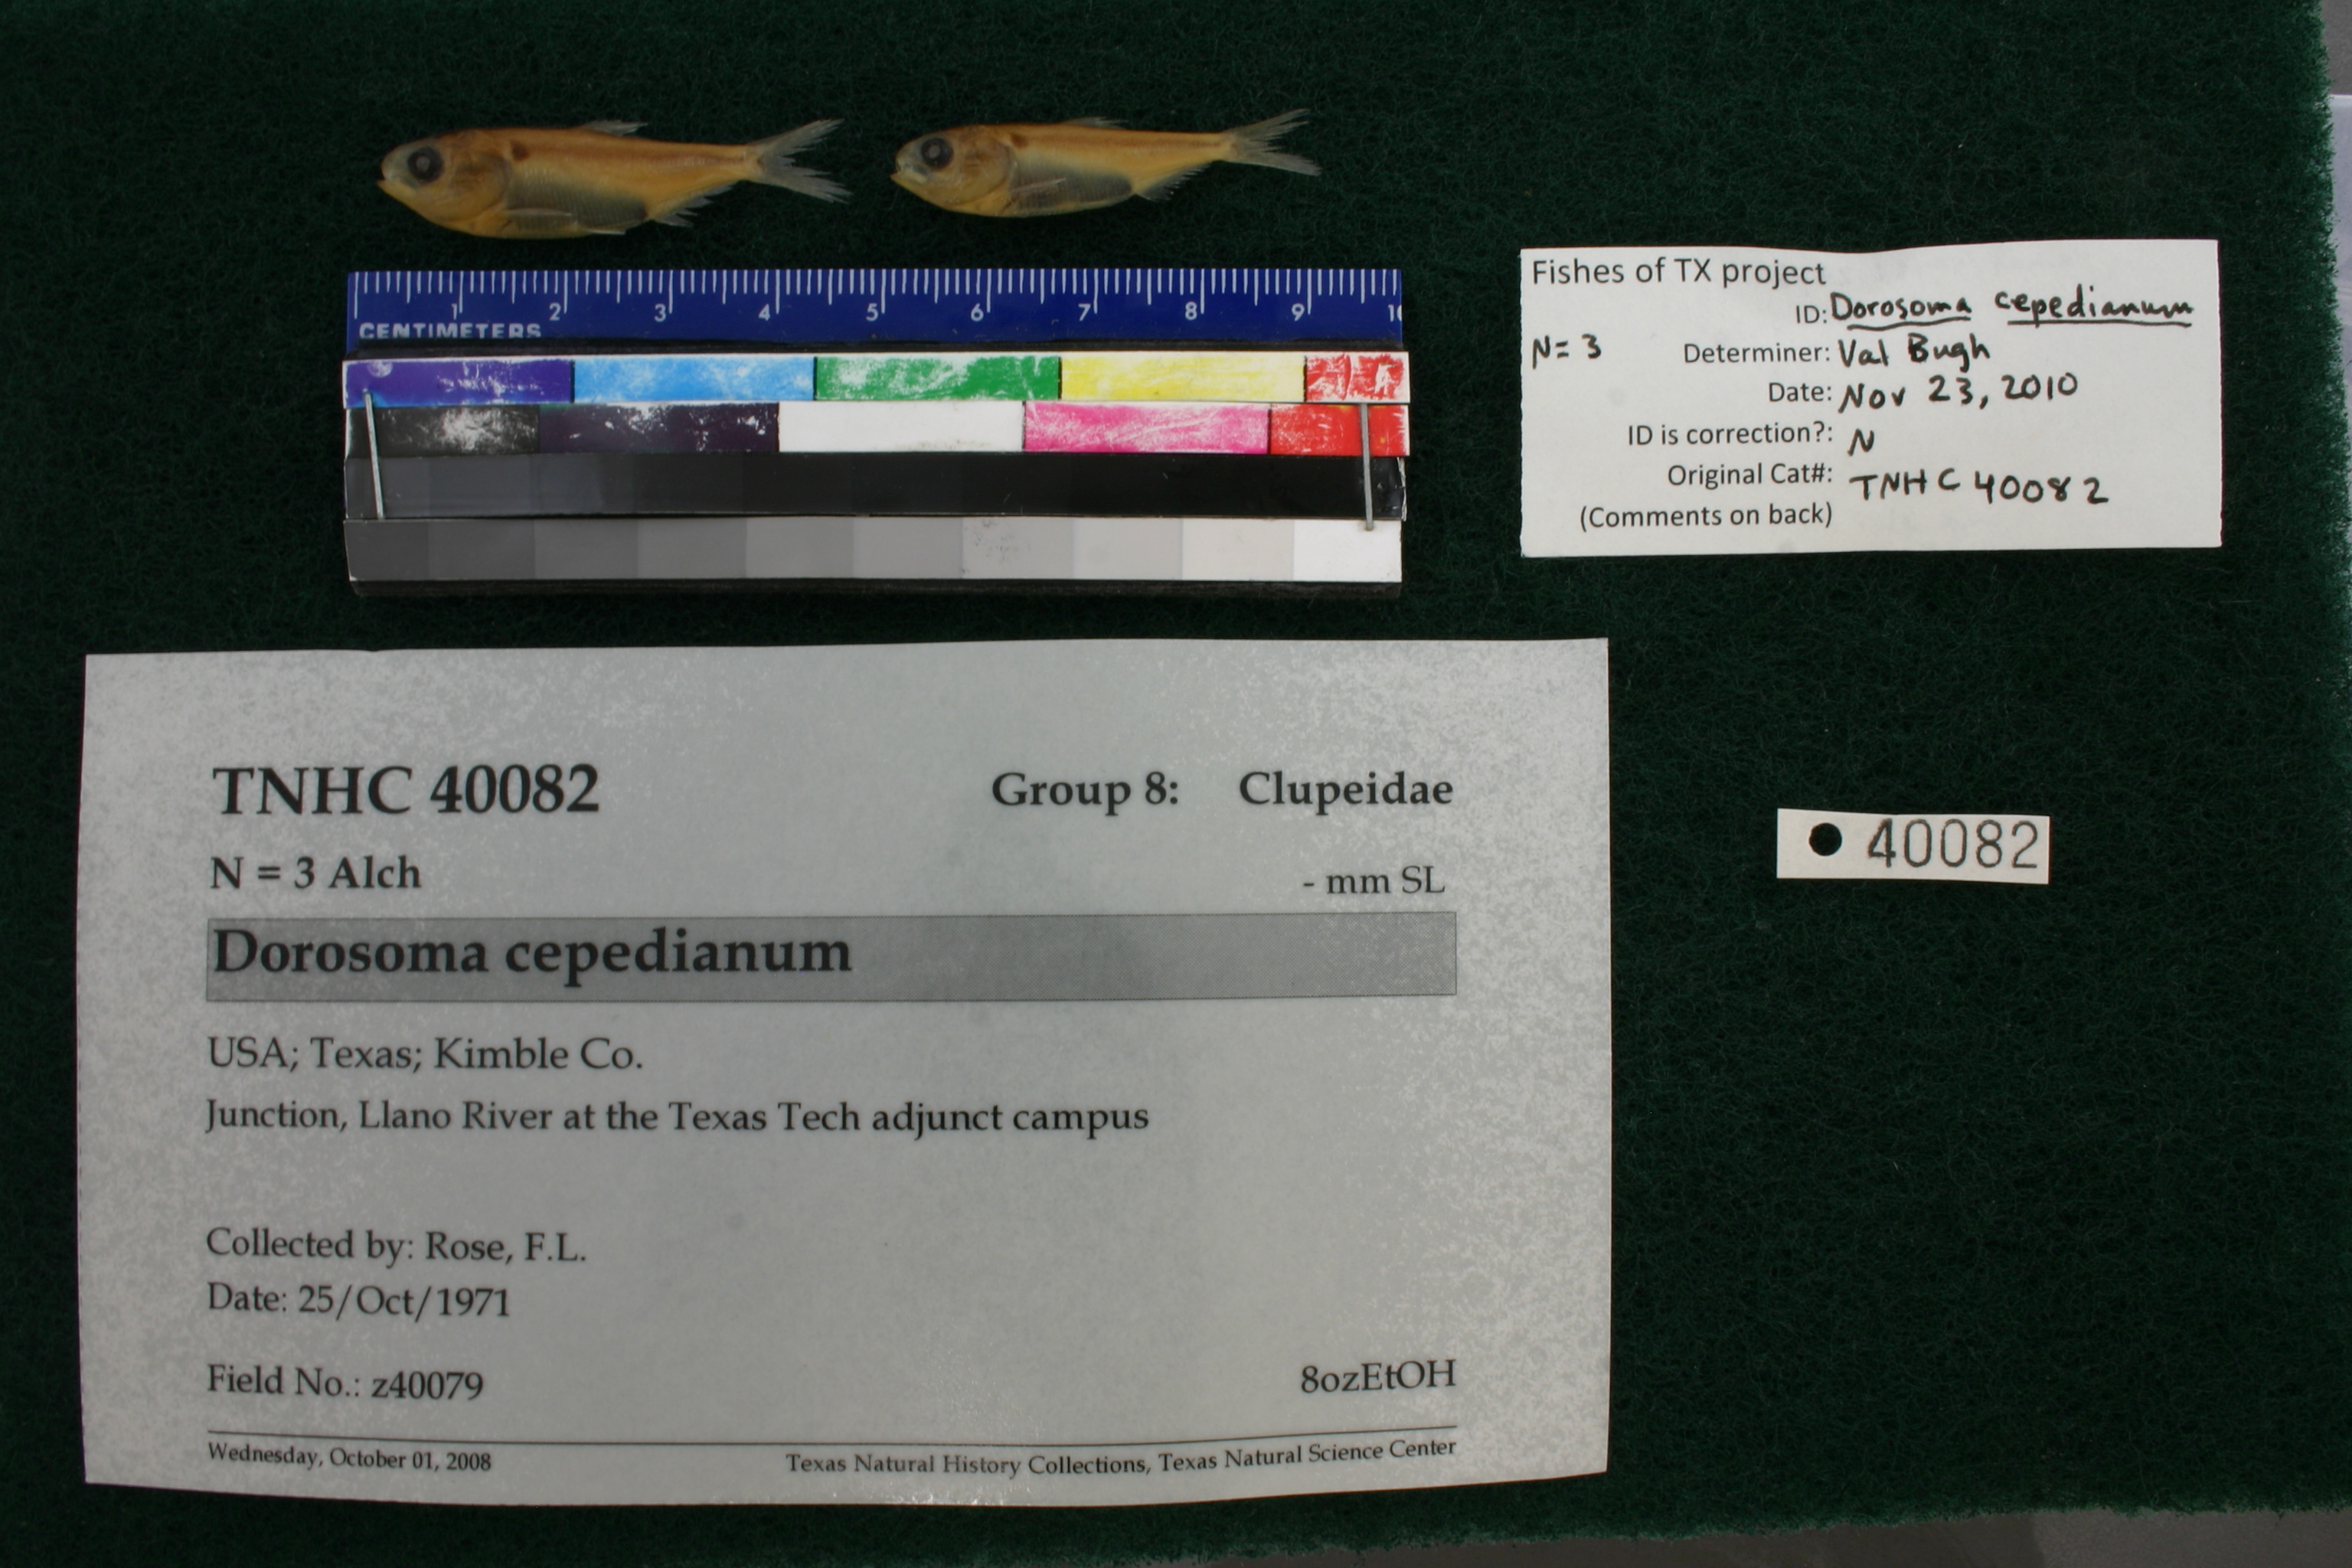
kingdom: Animalia
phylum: Chordata
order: Clupeiformes
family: Clupeidae
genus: Dorosoma
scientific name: Dorosoma cepedianum
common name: Gizzard shad
